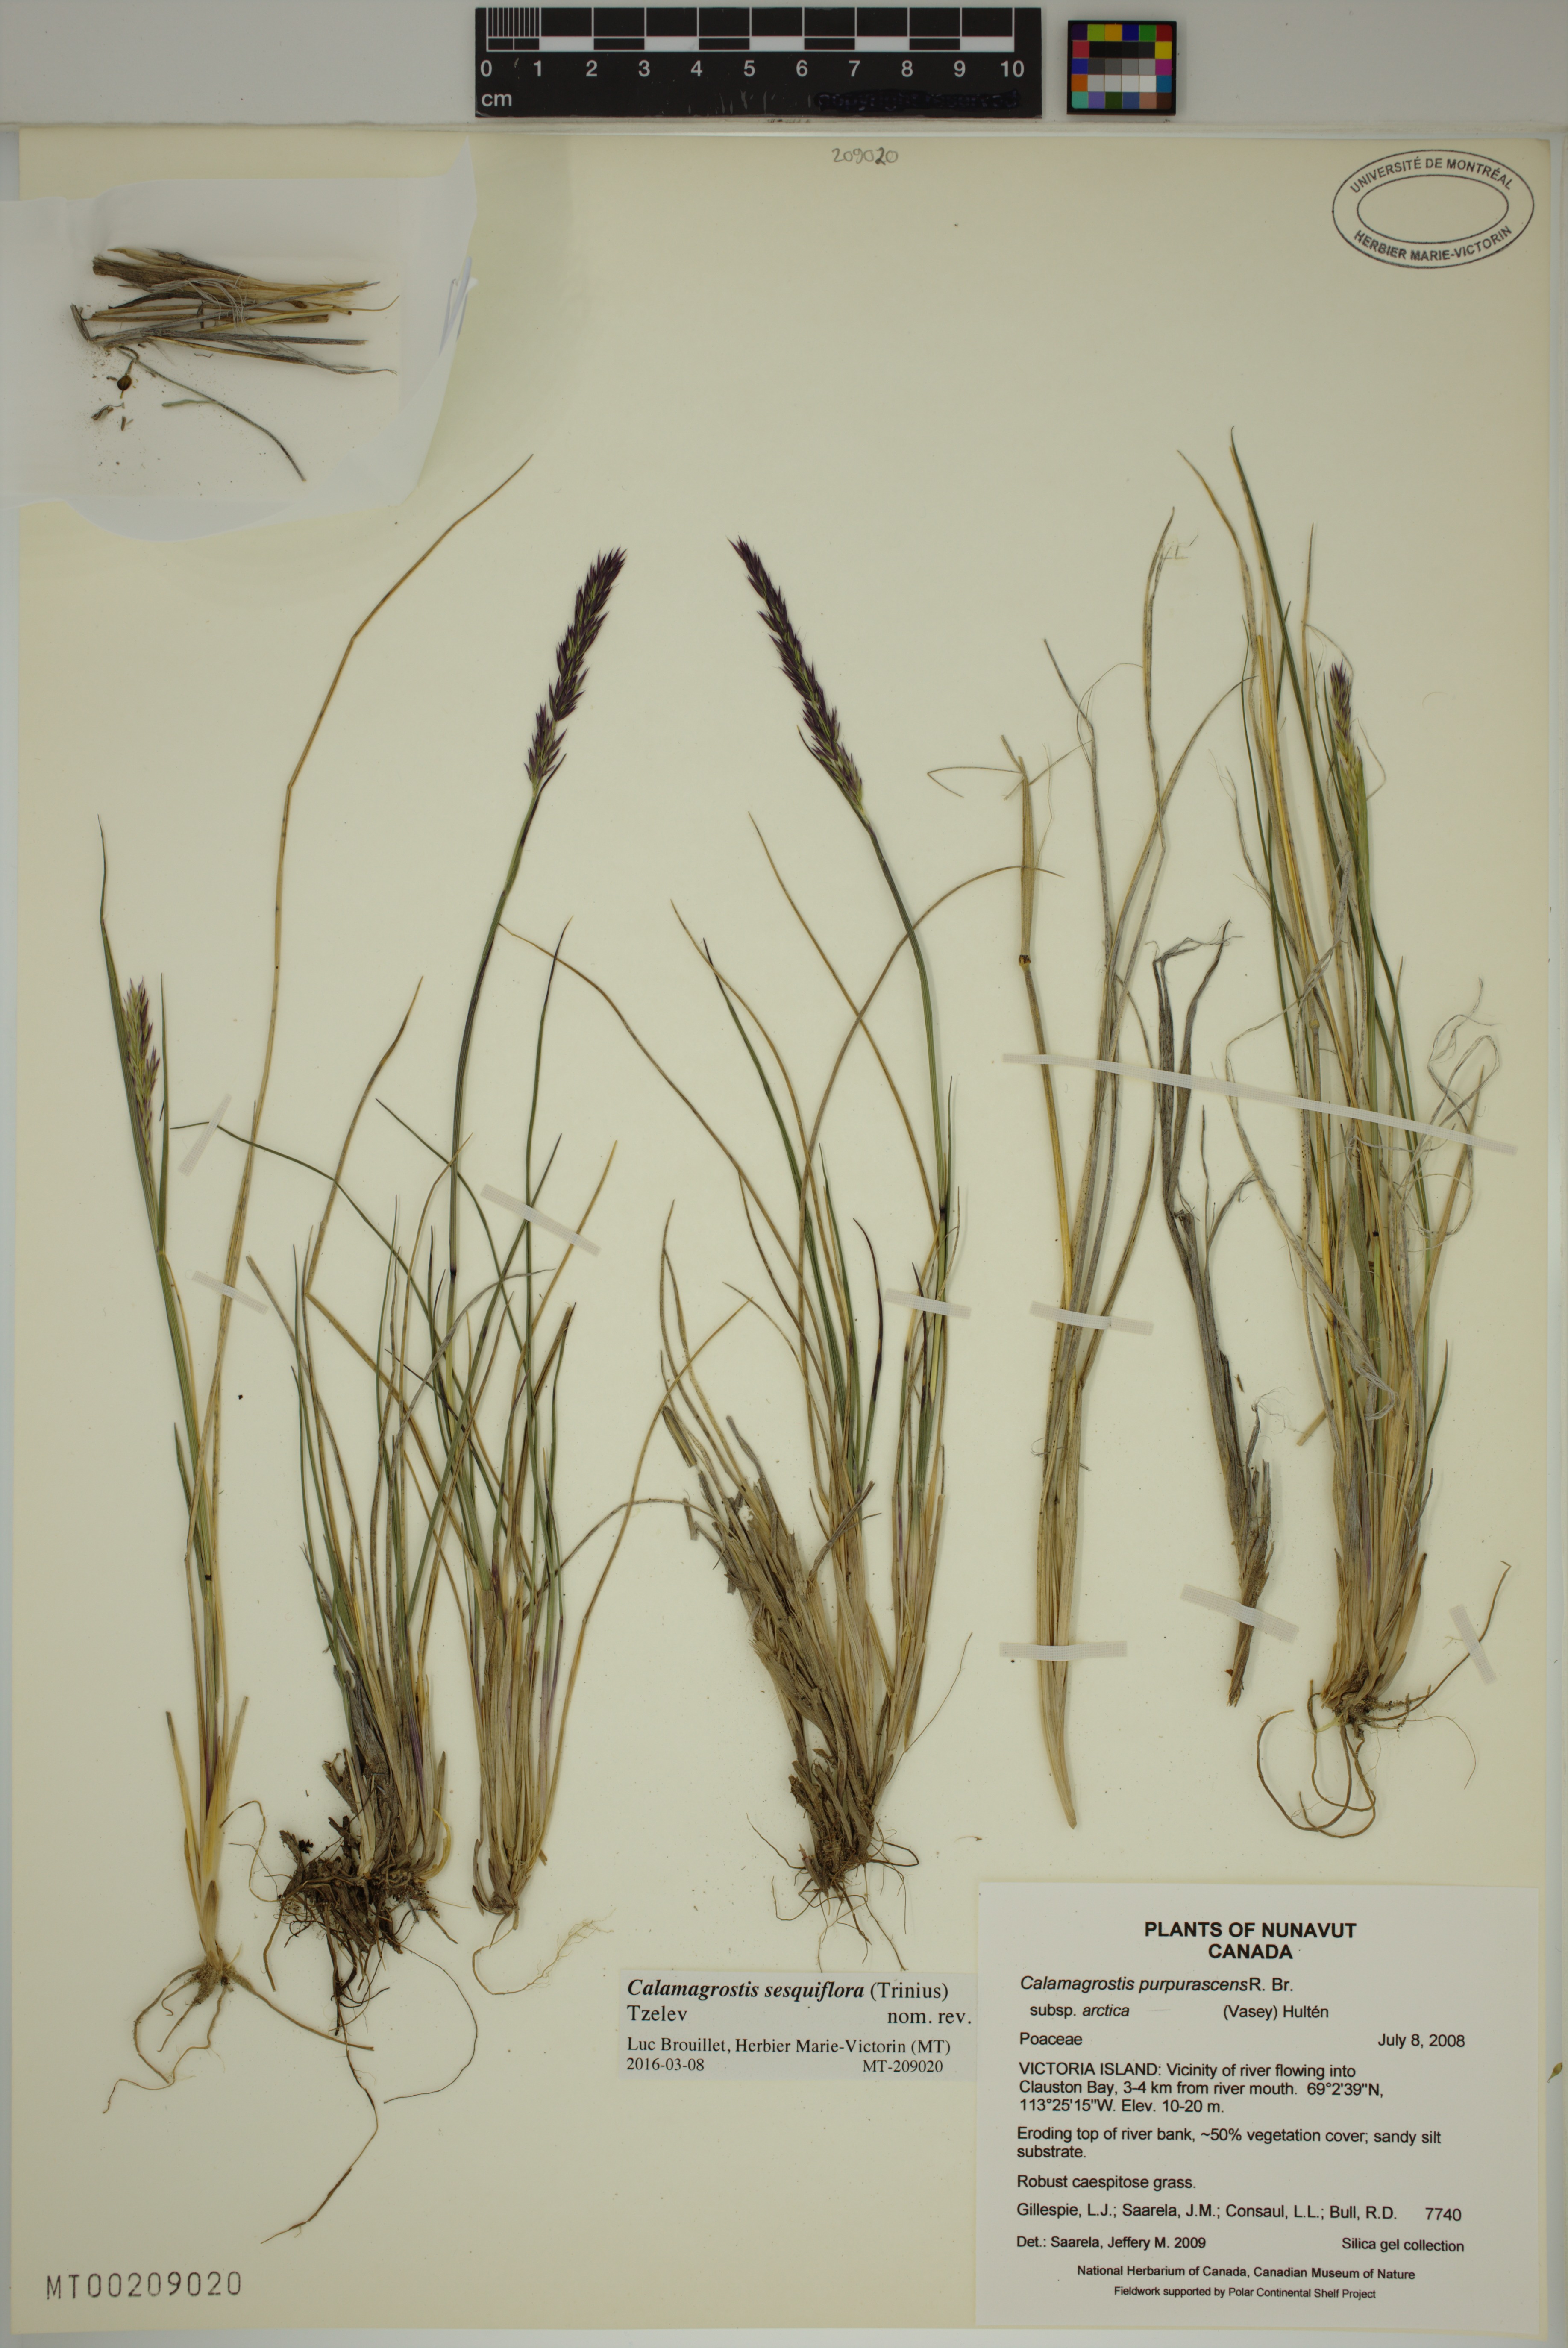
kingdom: Plantae
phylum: Tracheophyta
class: Liliopsida
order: Poales
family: Poaceae
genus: Calamagrostis
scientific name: Calamagrostis sesquiflora
